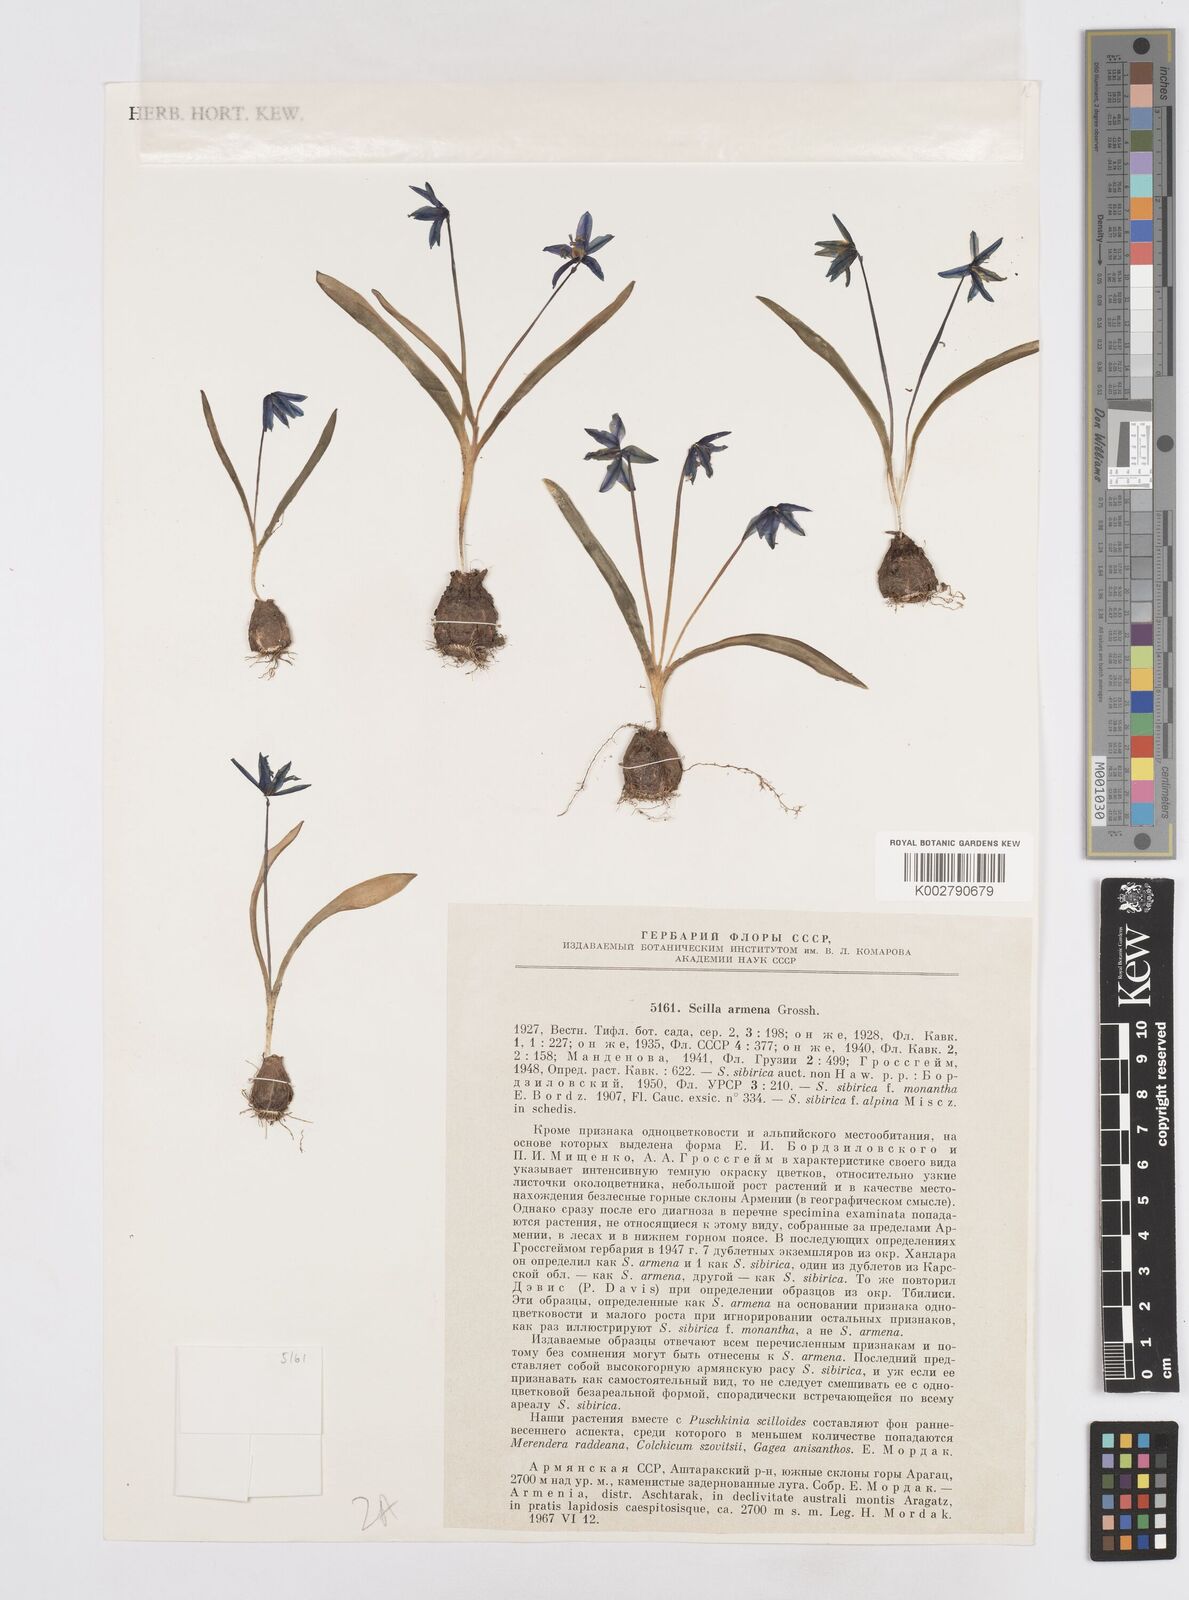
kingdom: Plantae
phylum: Tracheophyta
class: Liliopsida
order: Asparagales
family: Asparagaceae
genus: Scilla
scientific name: Scilla siberica
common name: Siberian squill
